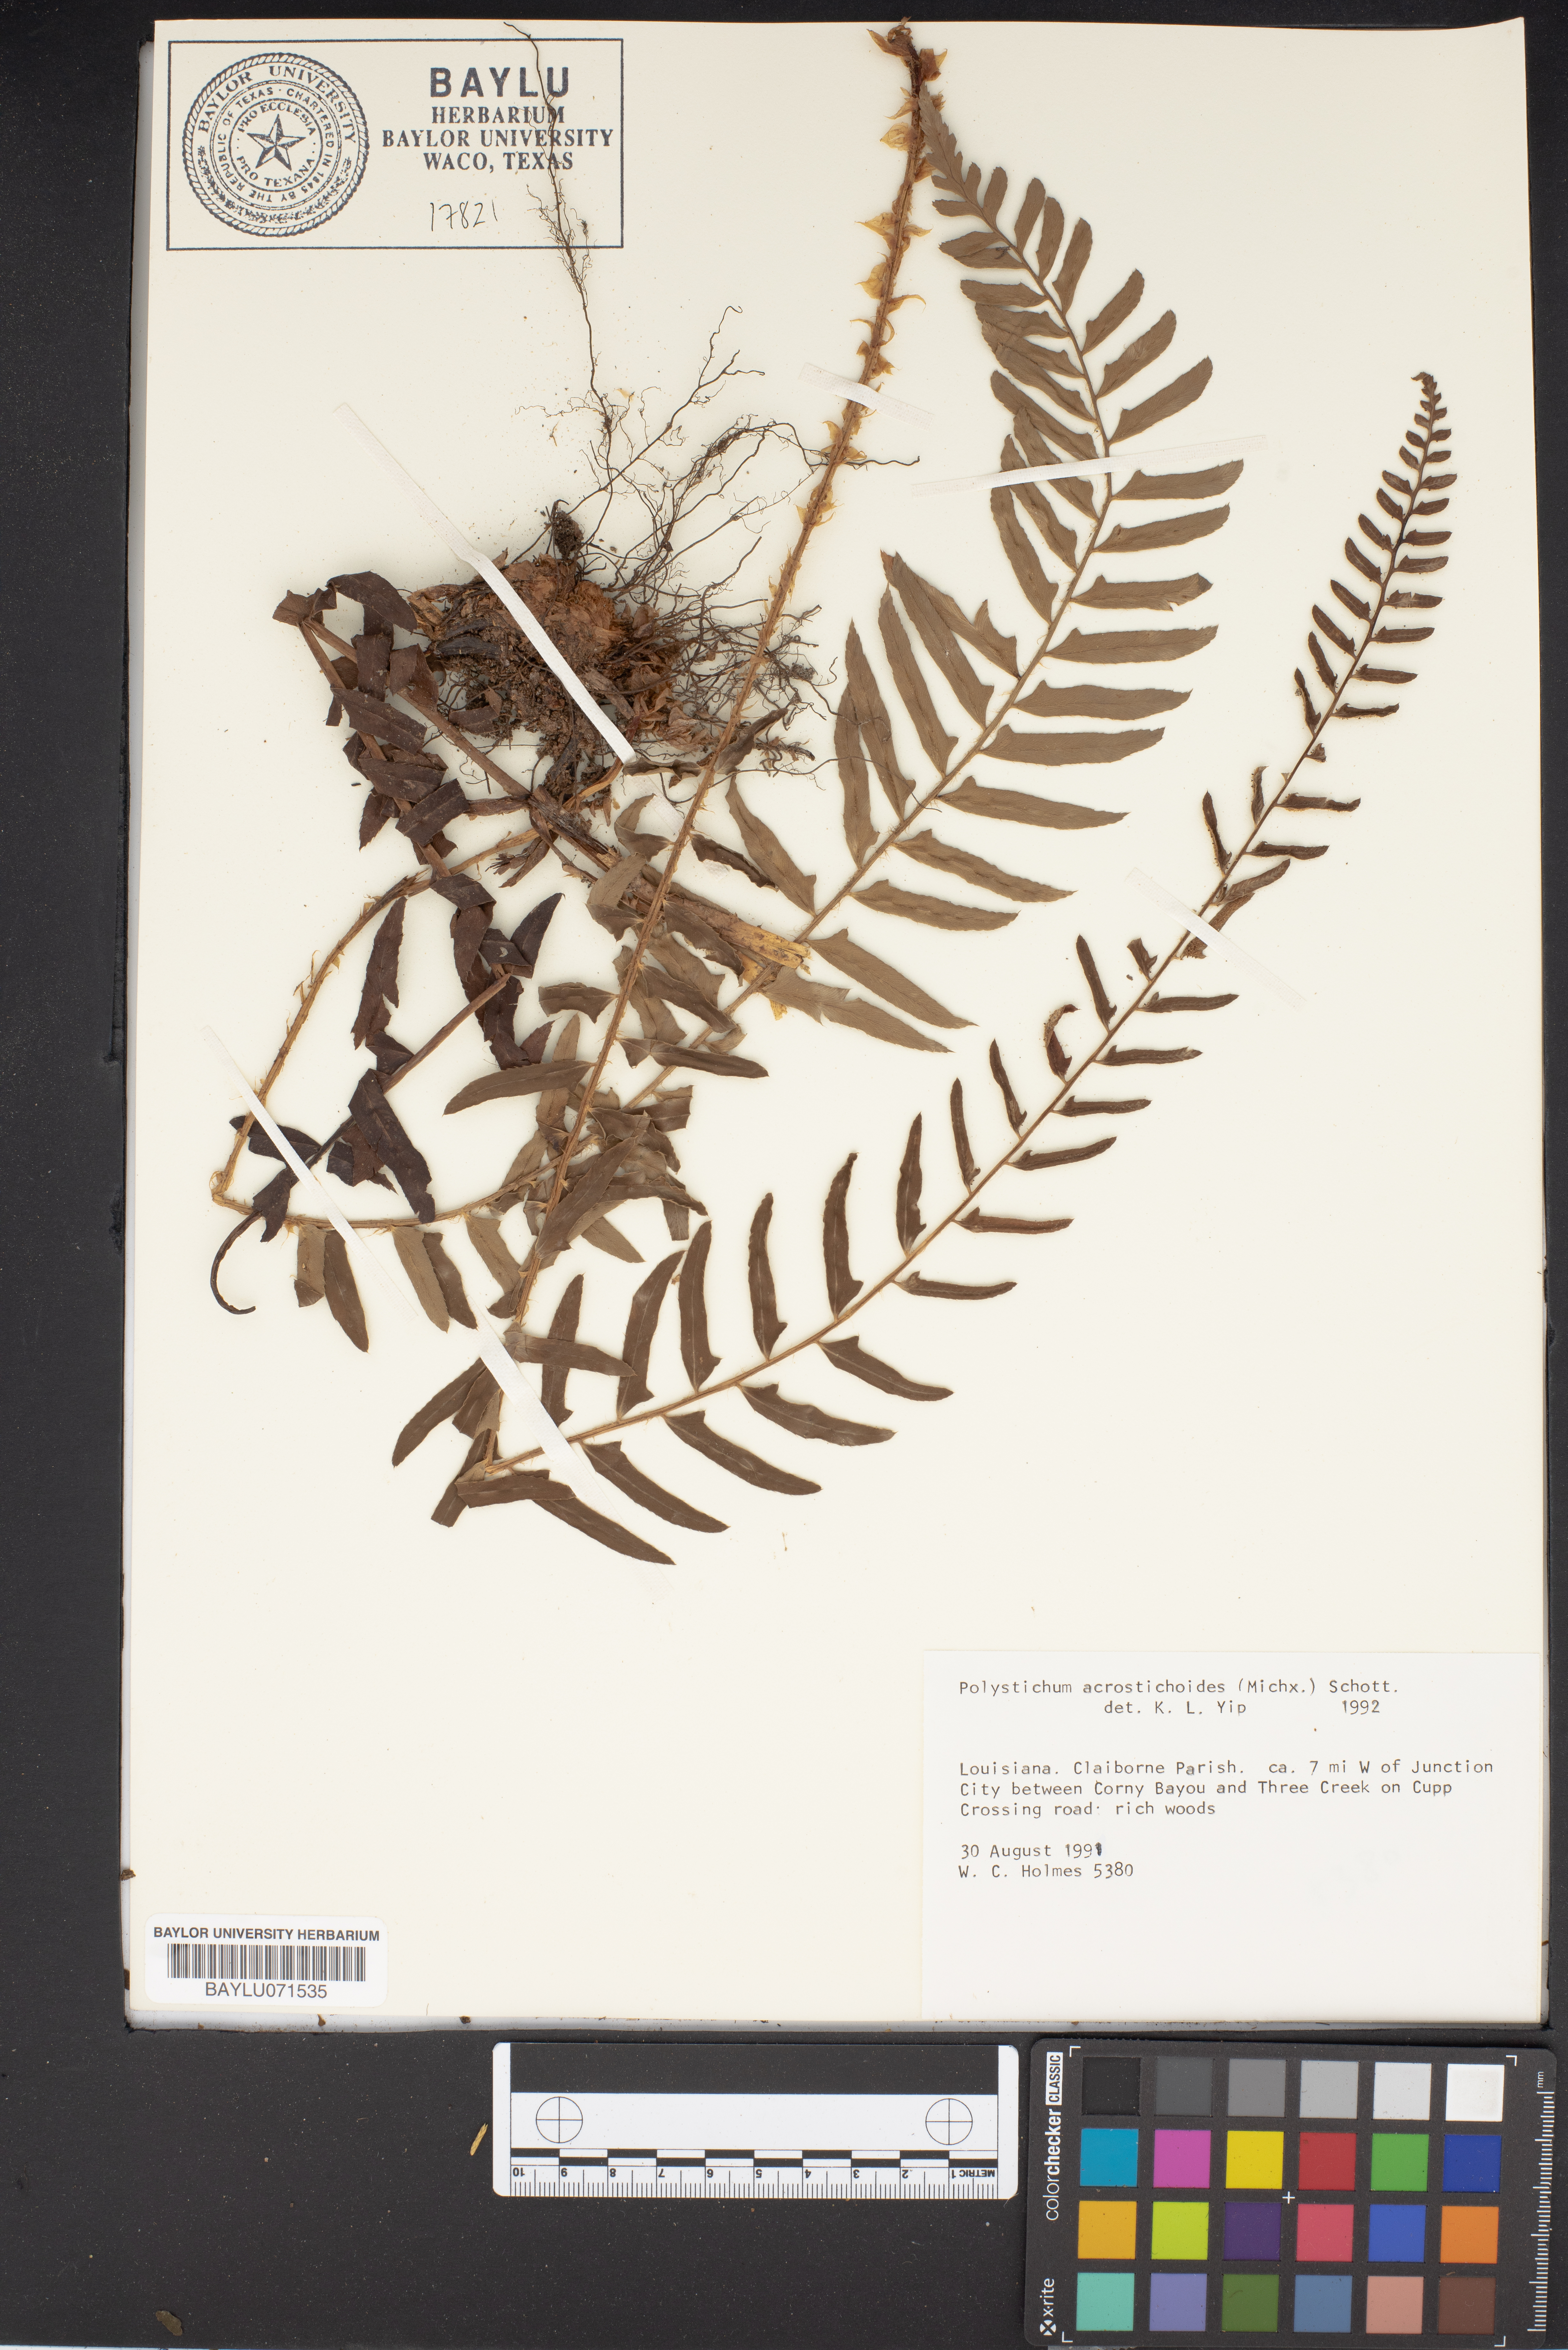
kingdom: Plantae
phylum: Tracheophyta
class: Polypodiopsida
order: Polypodiales
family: Dryopteridaceae
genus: Polystichum
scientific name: Polystichum acrostichoides
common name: Christmas fern
